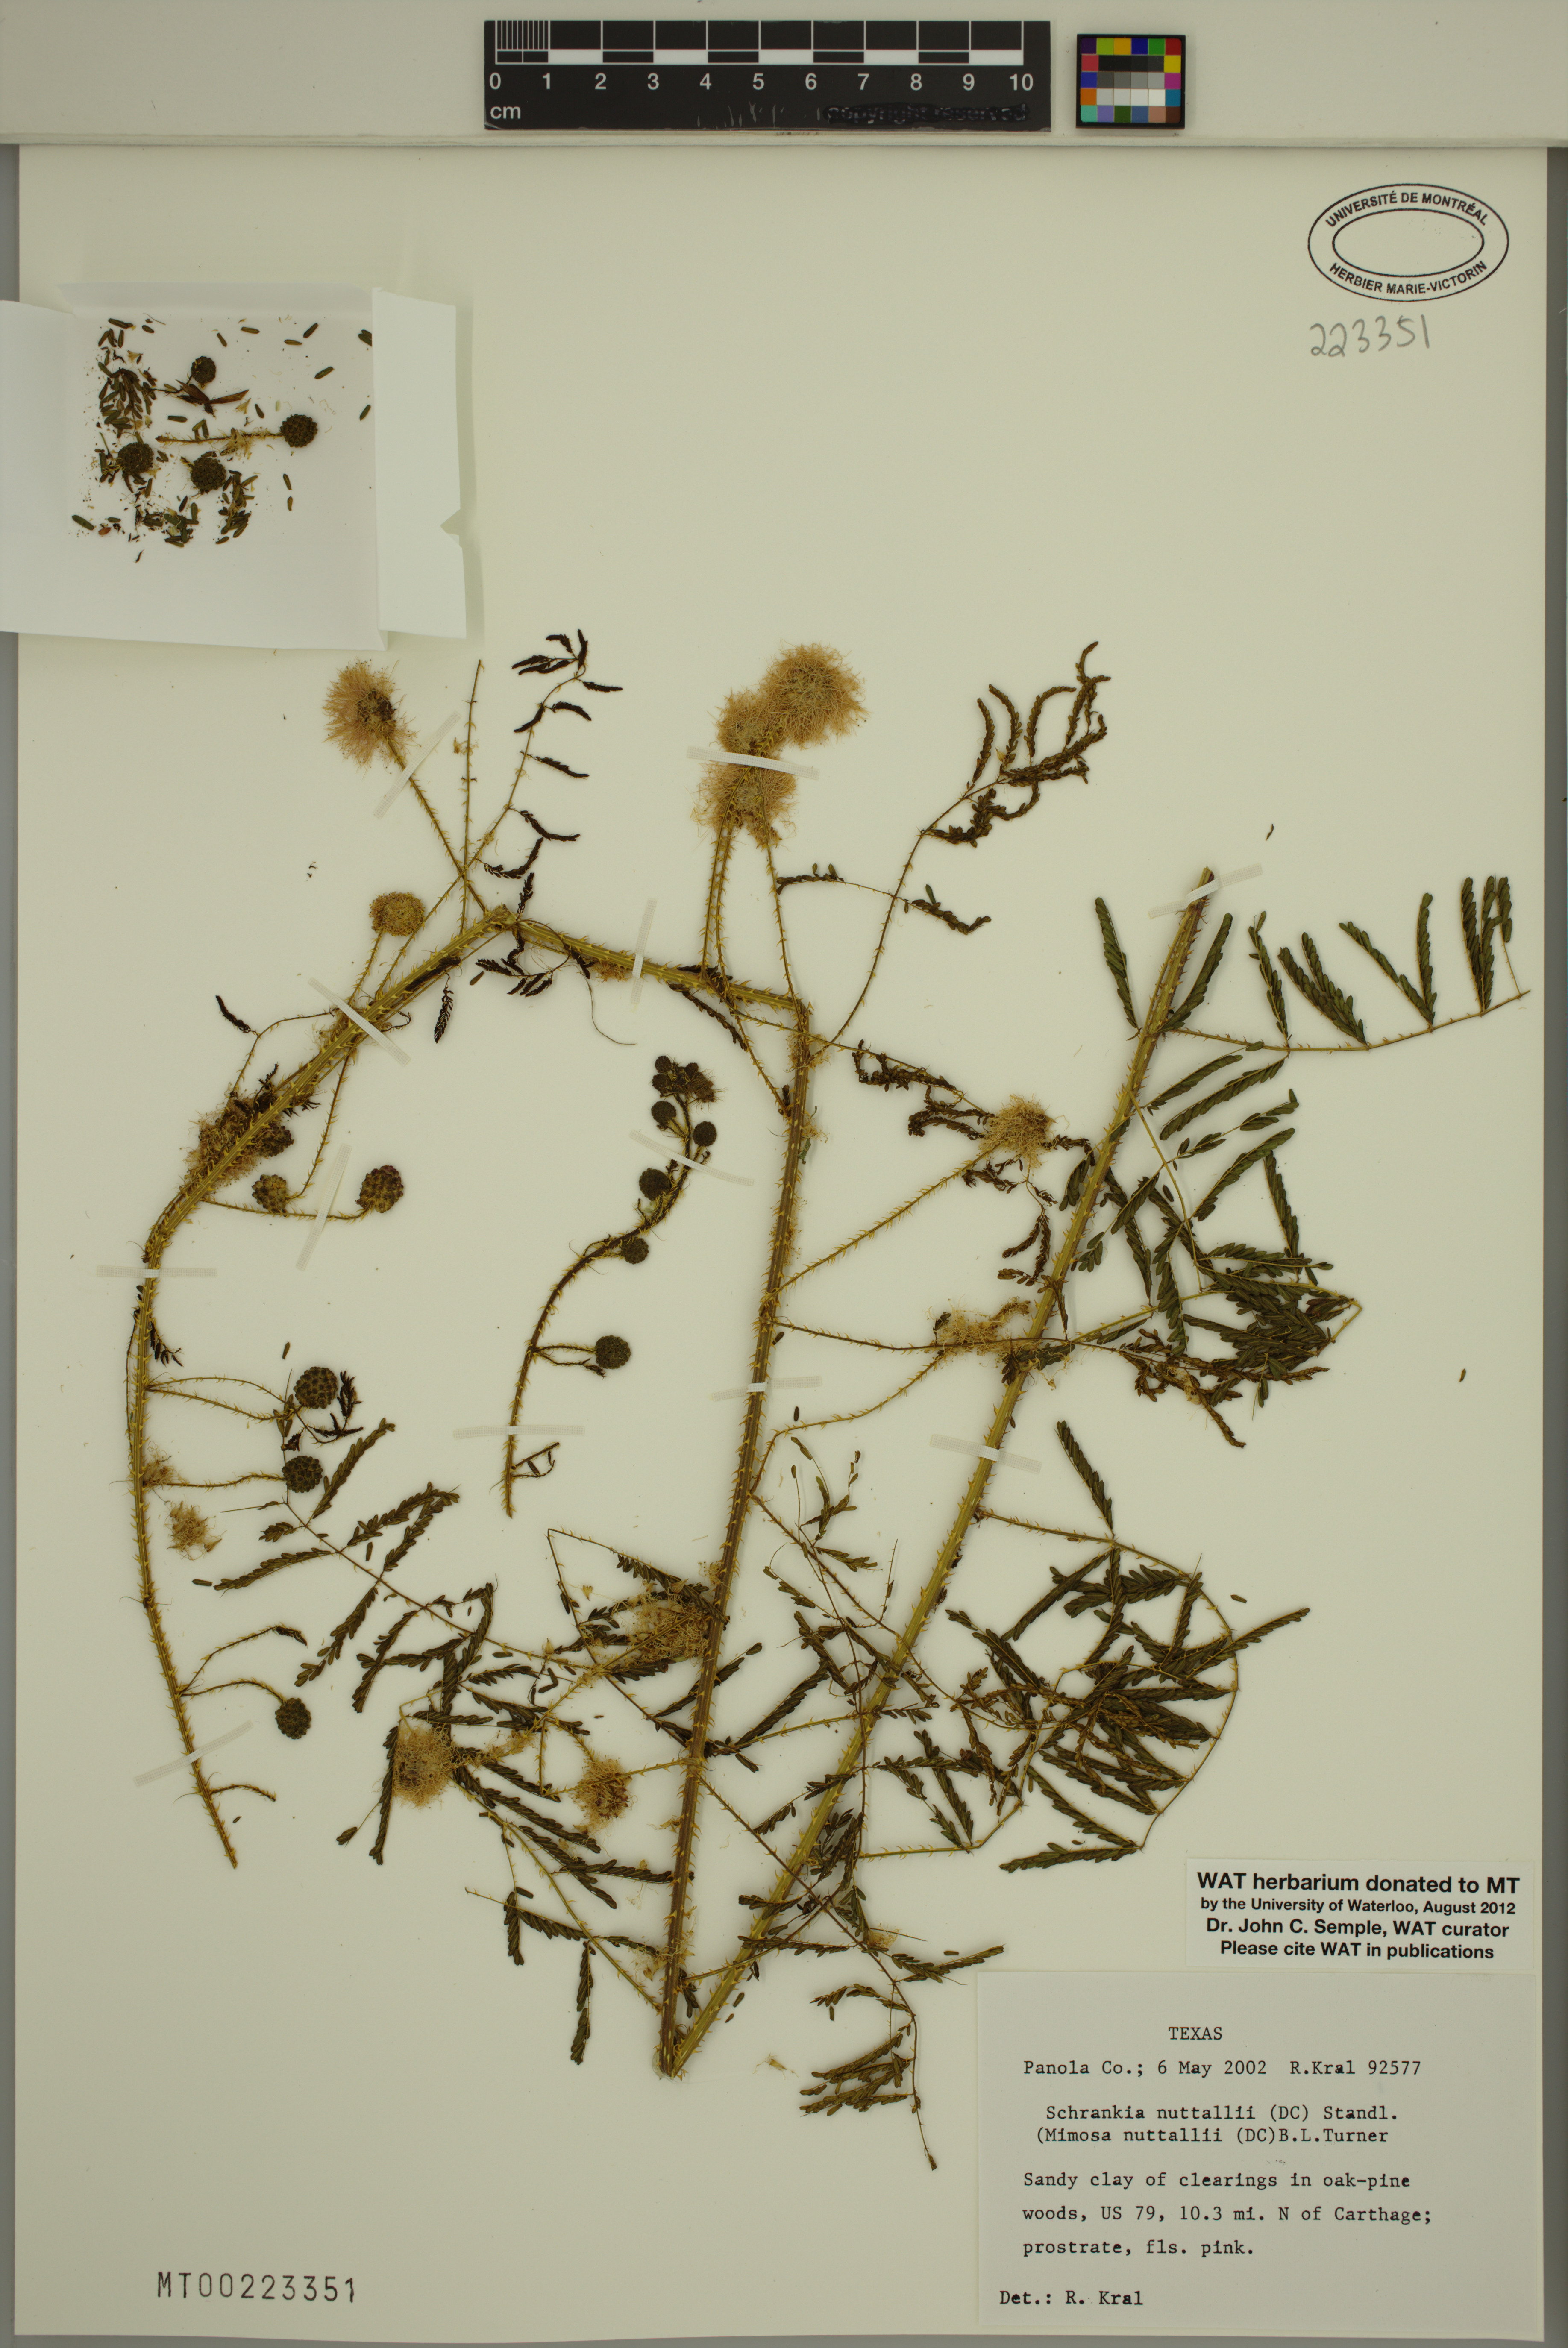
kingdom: Plantae
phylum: Tracheophyta
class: Magnoliopsida
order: Fabales
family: Fabaceae
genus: Mimosa
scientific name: Mimosa quadrivalvis
